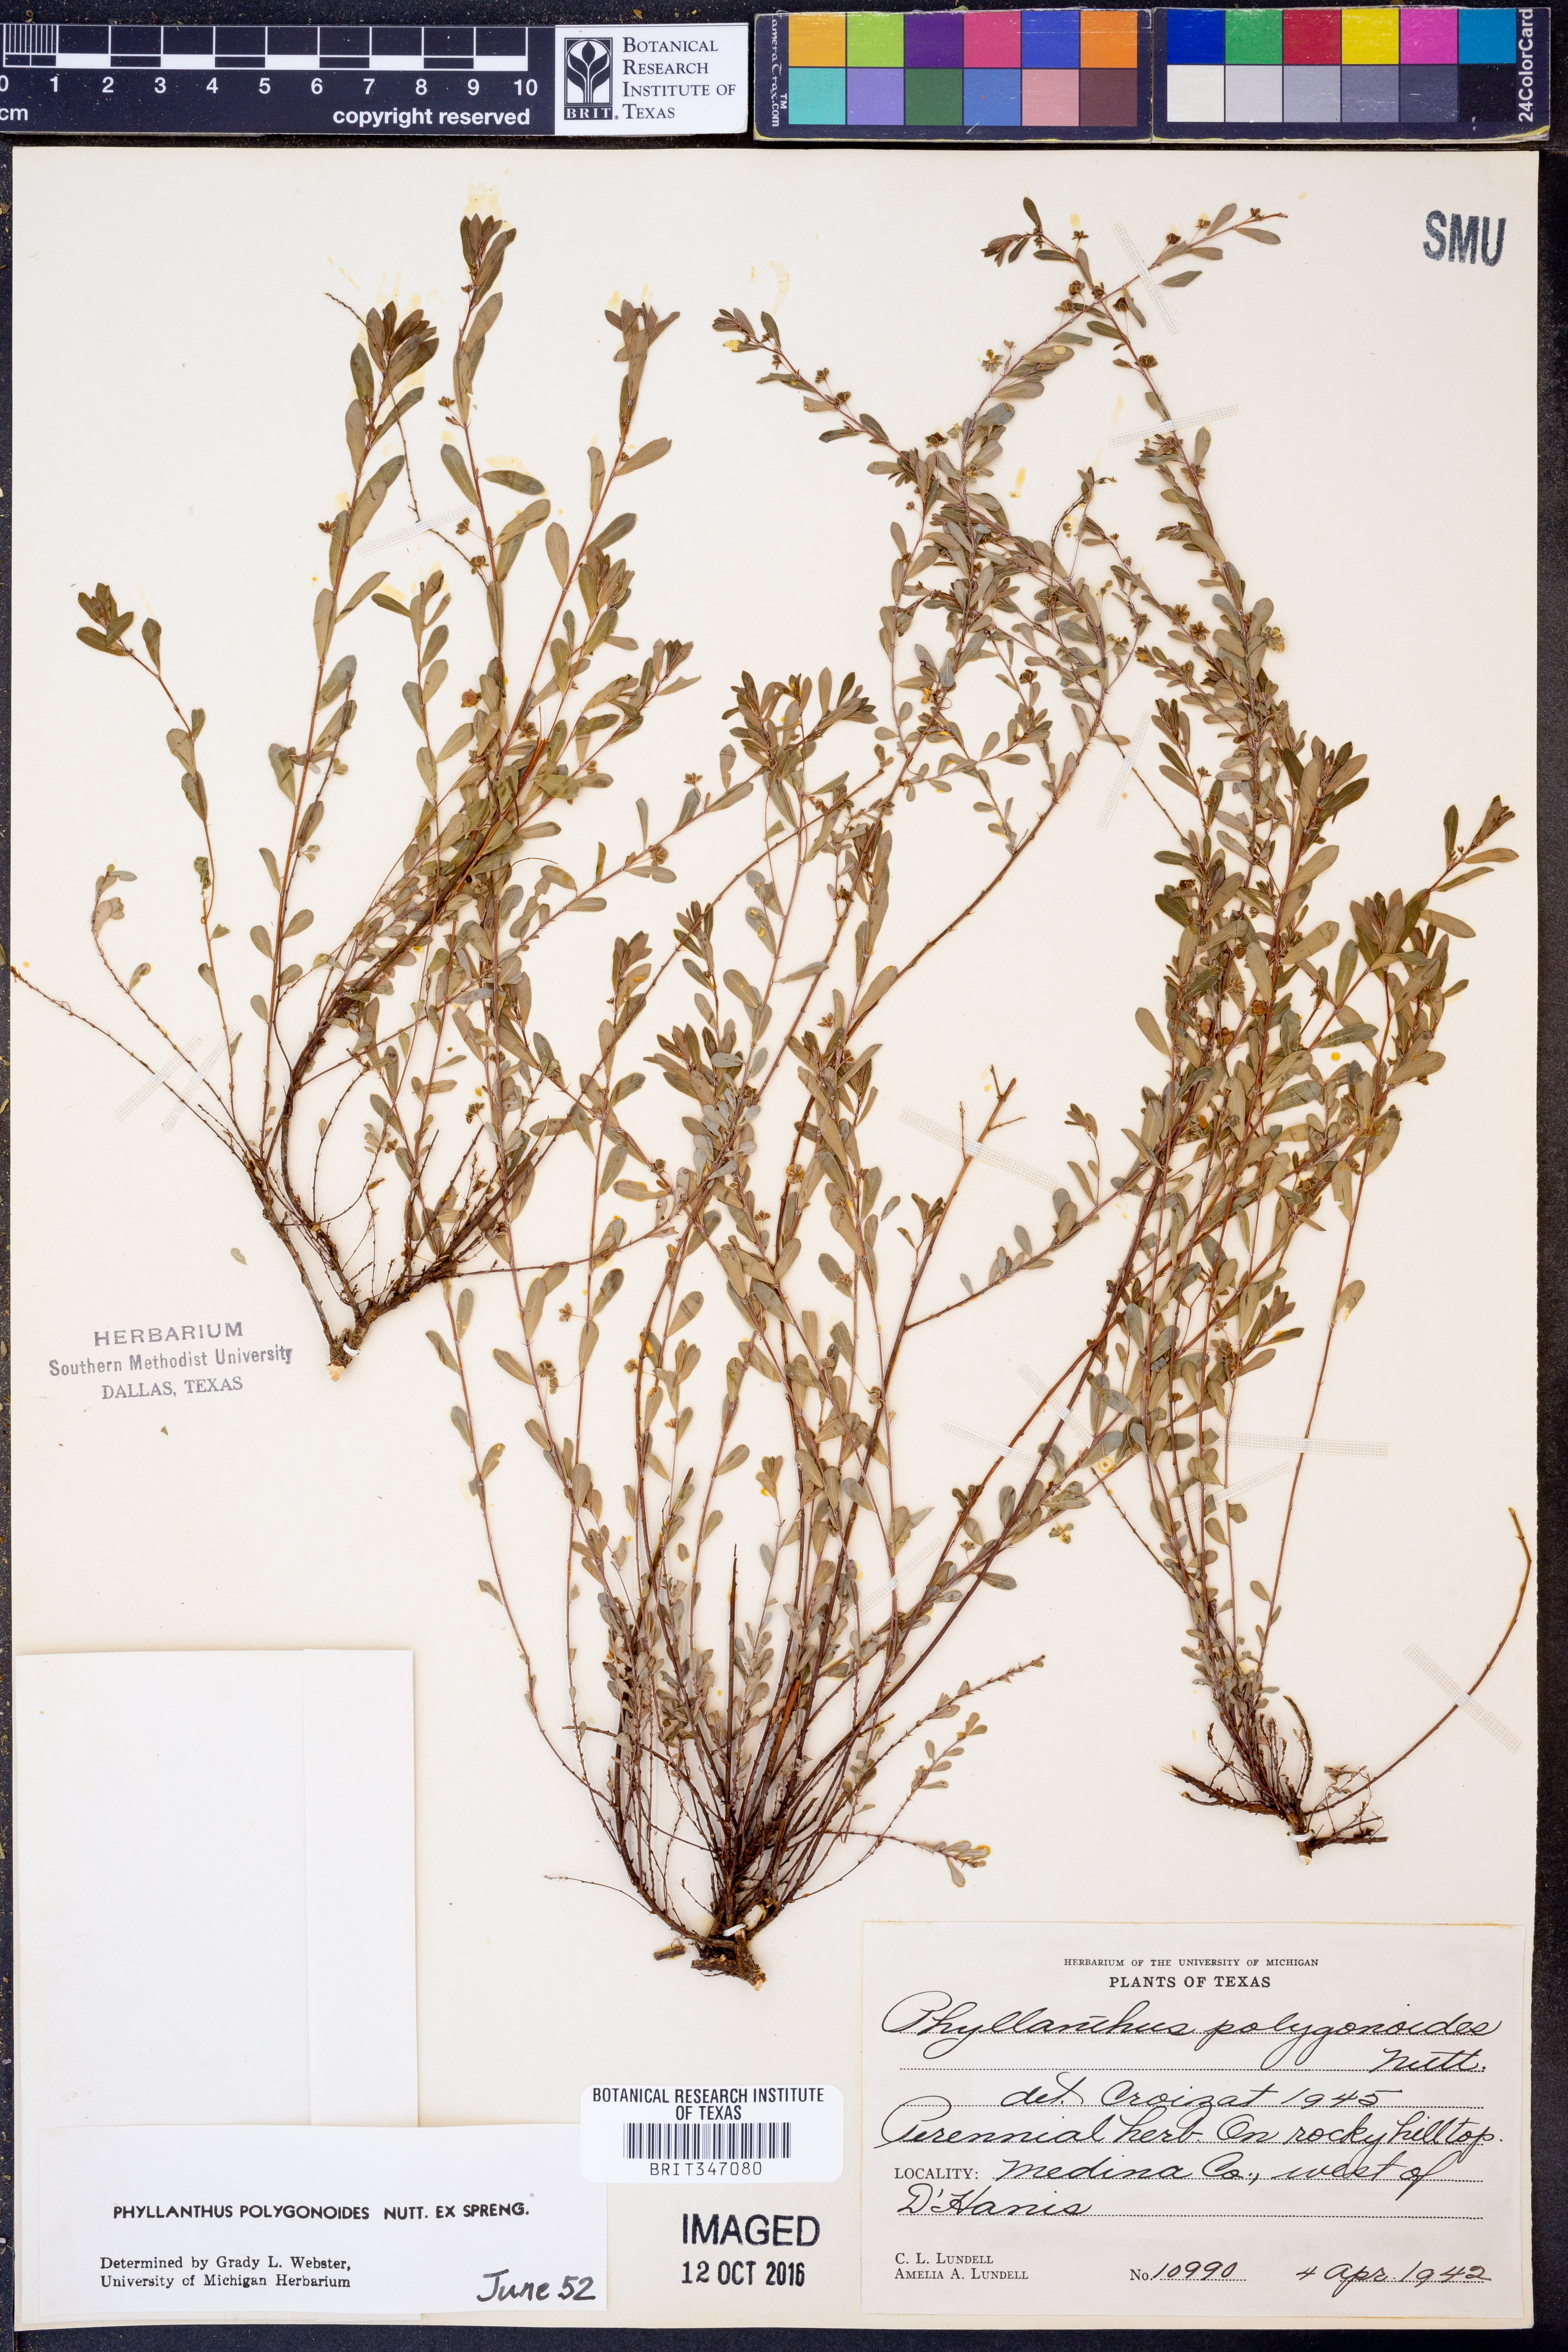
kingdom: Plantae
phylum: Tracheophyta
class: Magnoliopsida
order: Malpighiales
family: Phyllanthaceae
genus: Phyllanthus
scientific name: Phyllanthus polygonoides
